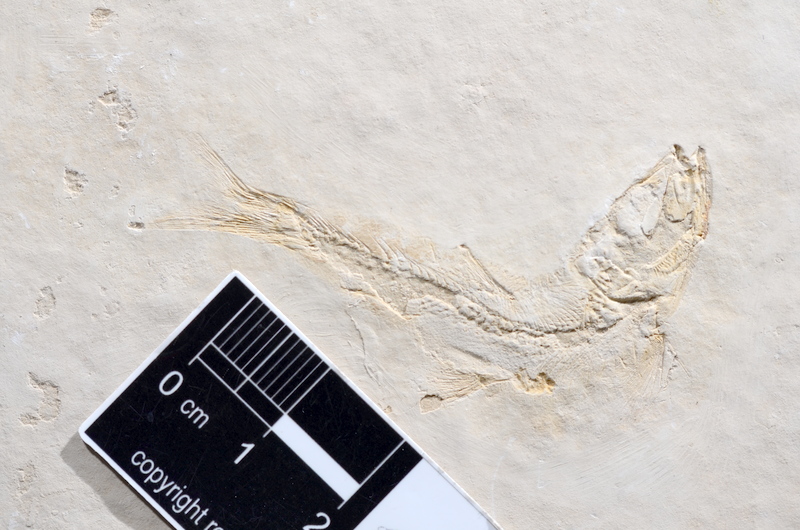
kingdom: Animalia
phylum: Chordata
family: Ascalaboidae
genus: Tharsis
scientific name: Tharsis dubius
